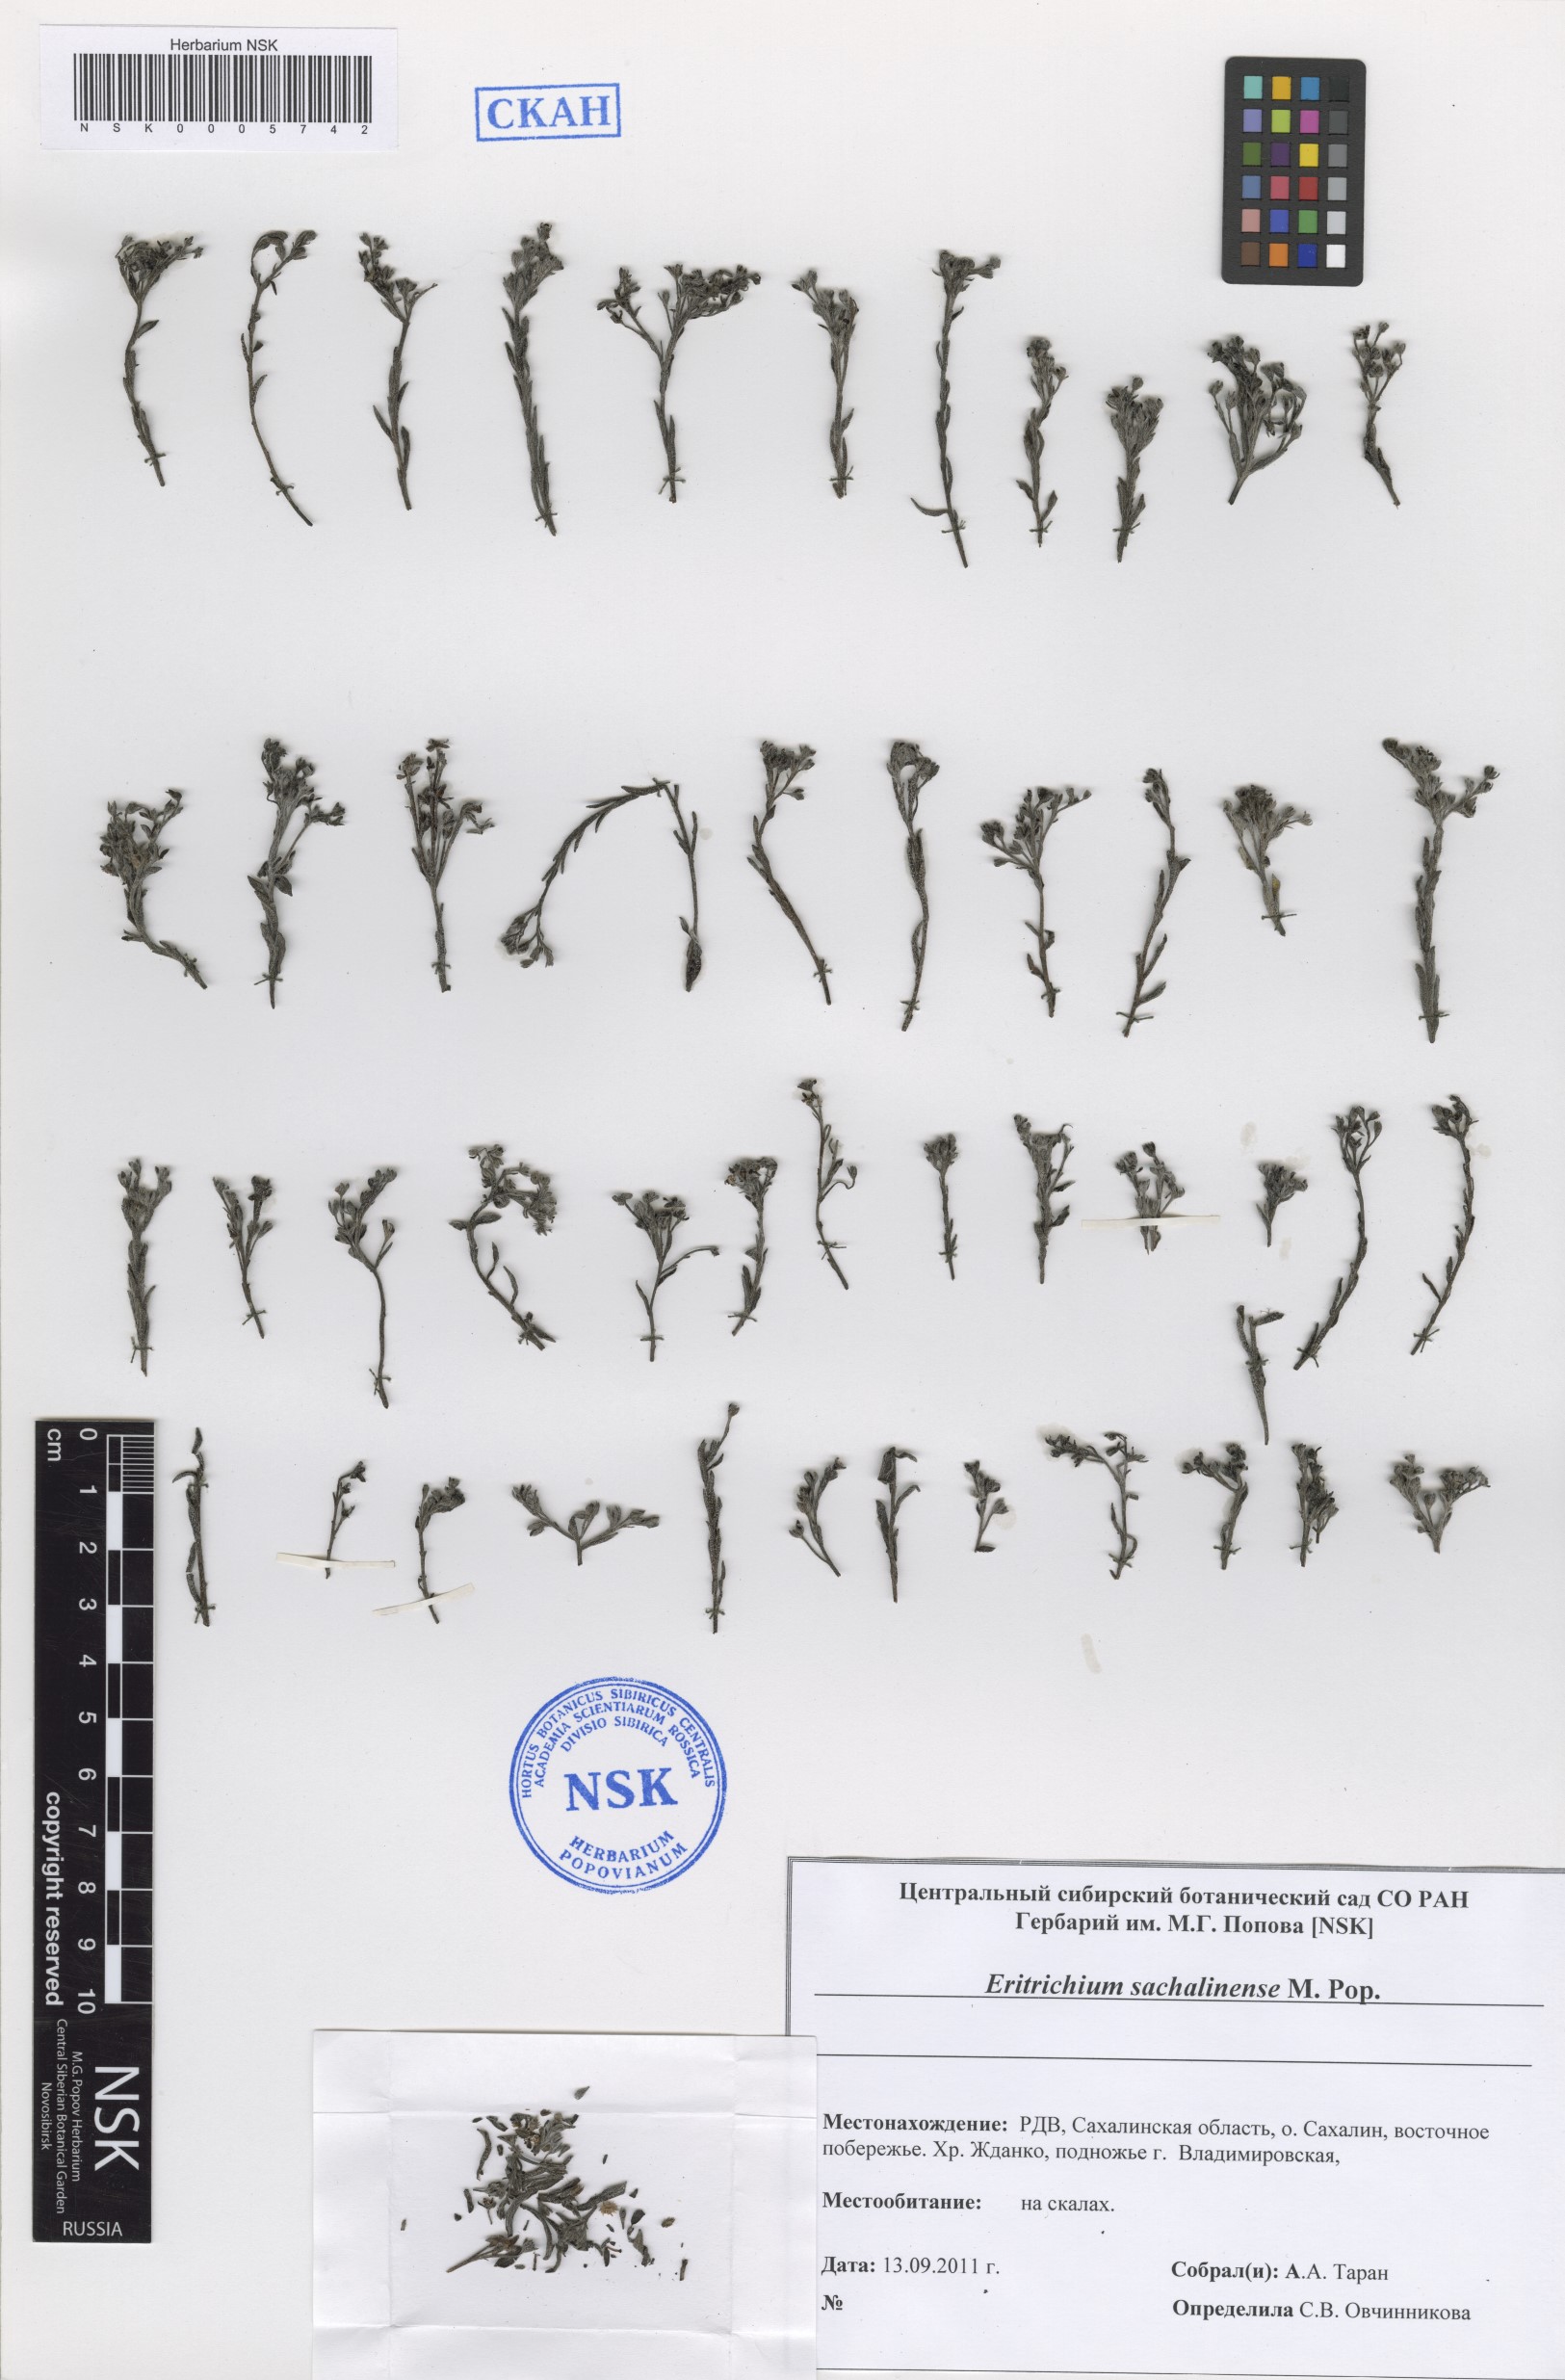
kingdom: Plantae
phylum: Tracheophyta
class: Magnoliopsida
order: Boraginales
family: Boraginaceae
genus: Eritrichium
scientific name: Eritrichium nipponicum
